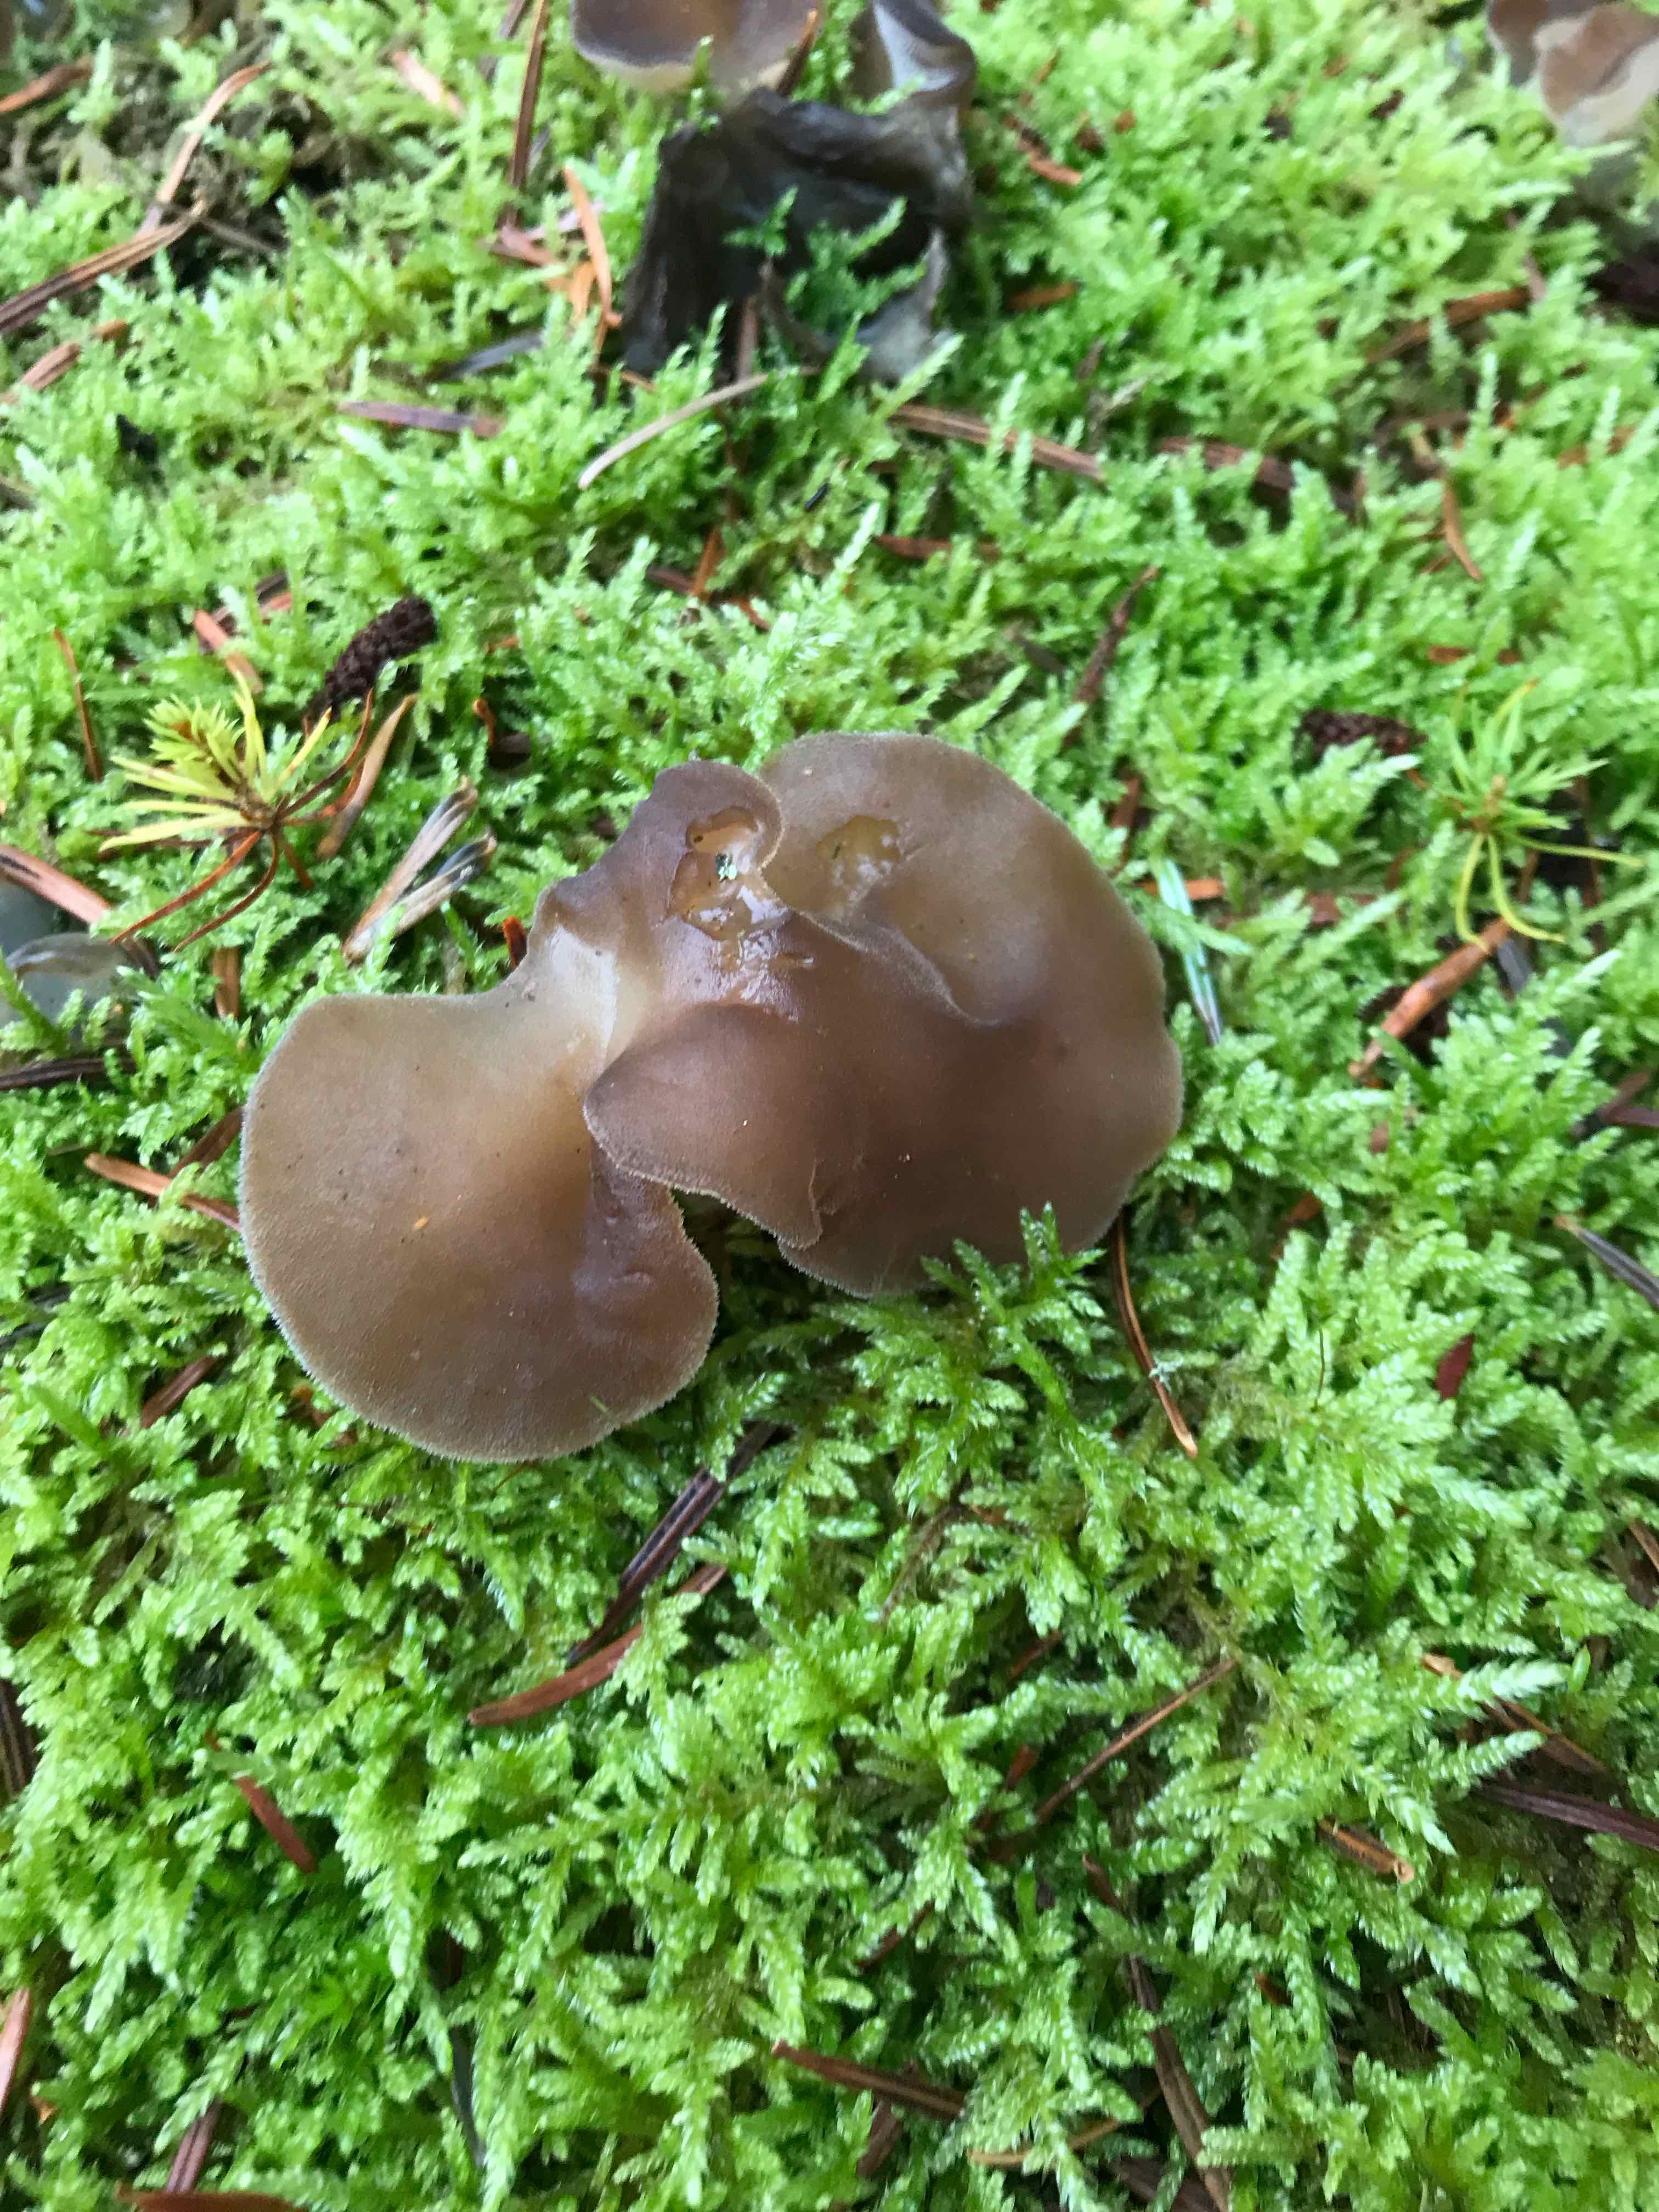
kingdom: Fungi
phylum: Basidiomycota
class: Agaricomycetes
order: Auriculariales
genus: Pseudohydnum
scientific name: Pseudohydnum gelatinosum
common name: bævretand
